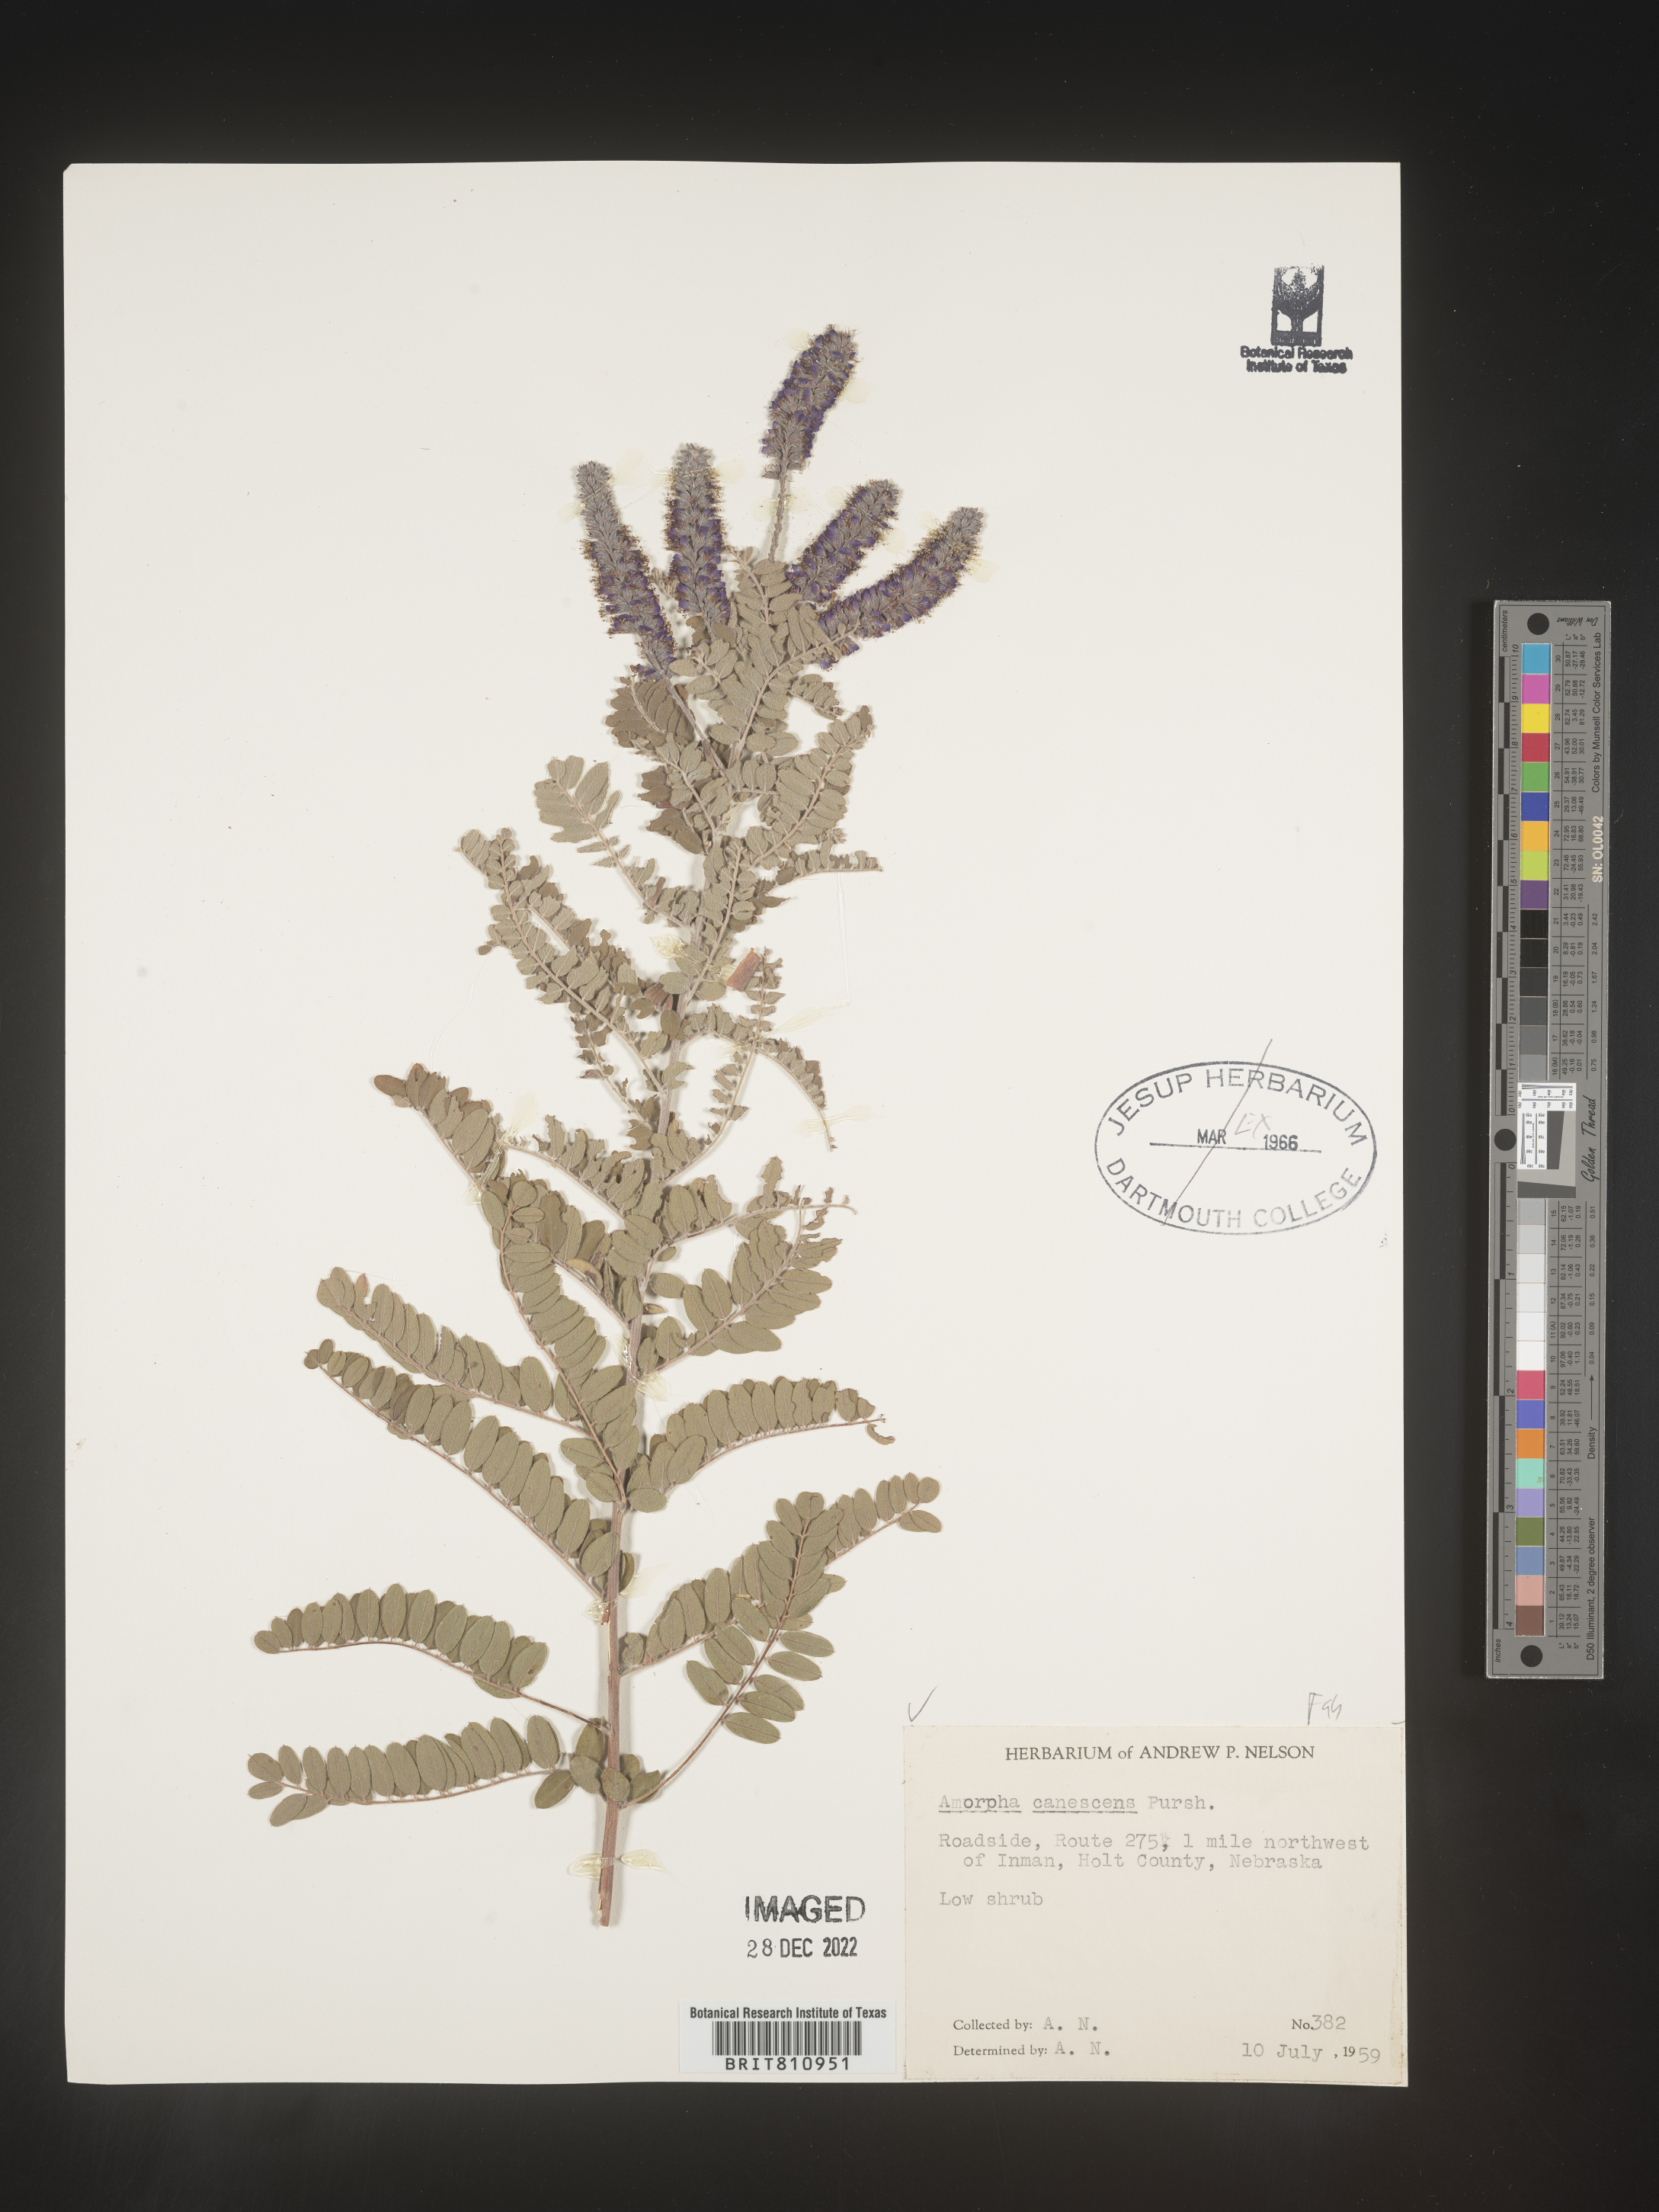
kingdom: Plantae
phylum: Tracheophyta
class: Magnoliopsida
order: Fabales
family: Fabaceae
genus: Amorpha
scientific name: Amorpha canescens
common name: Leadplant
